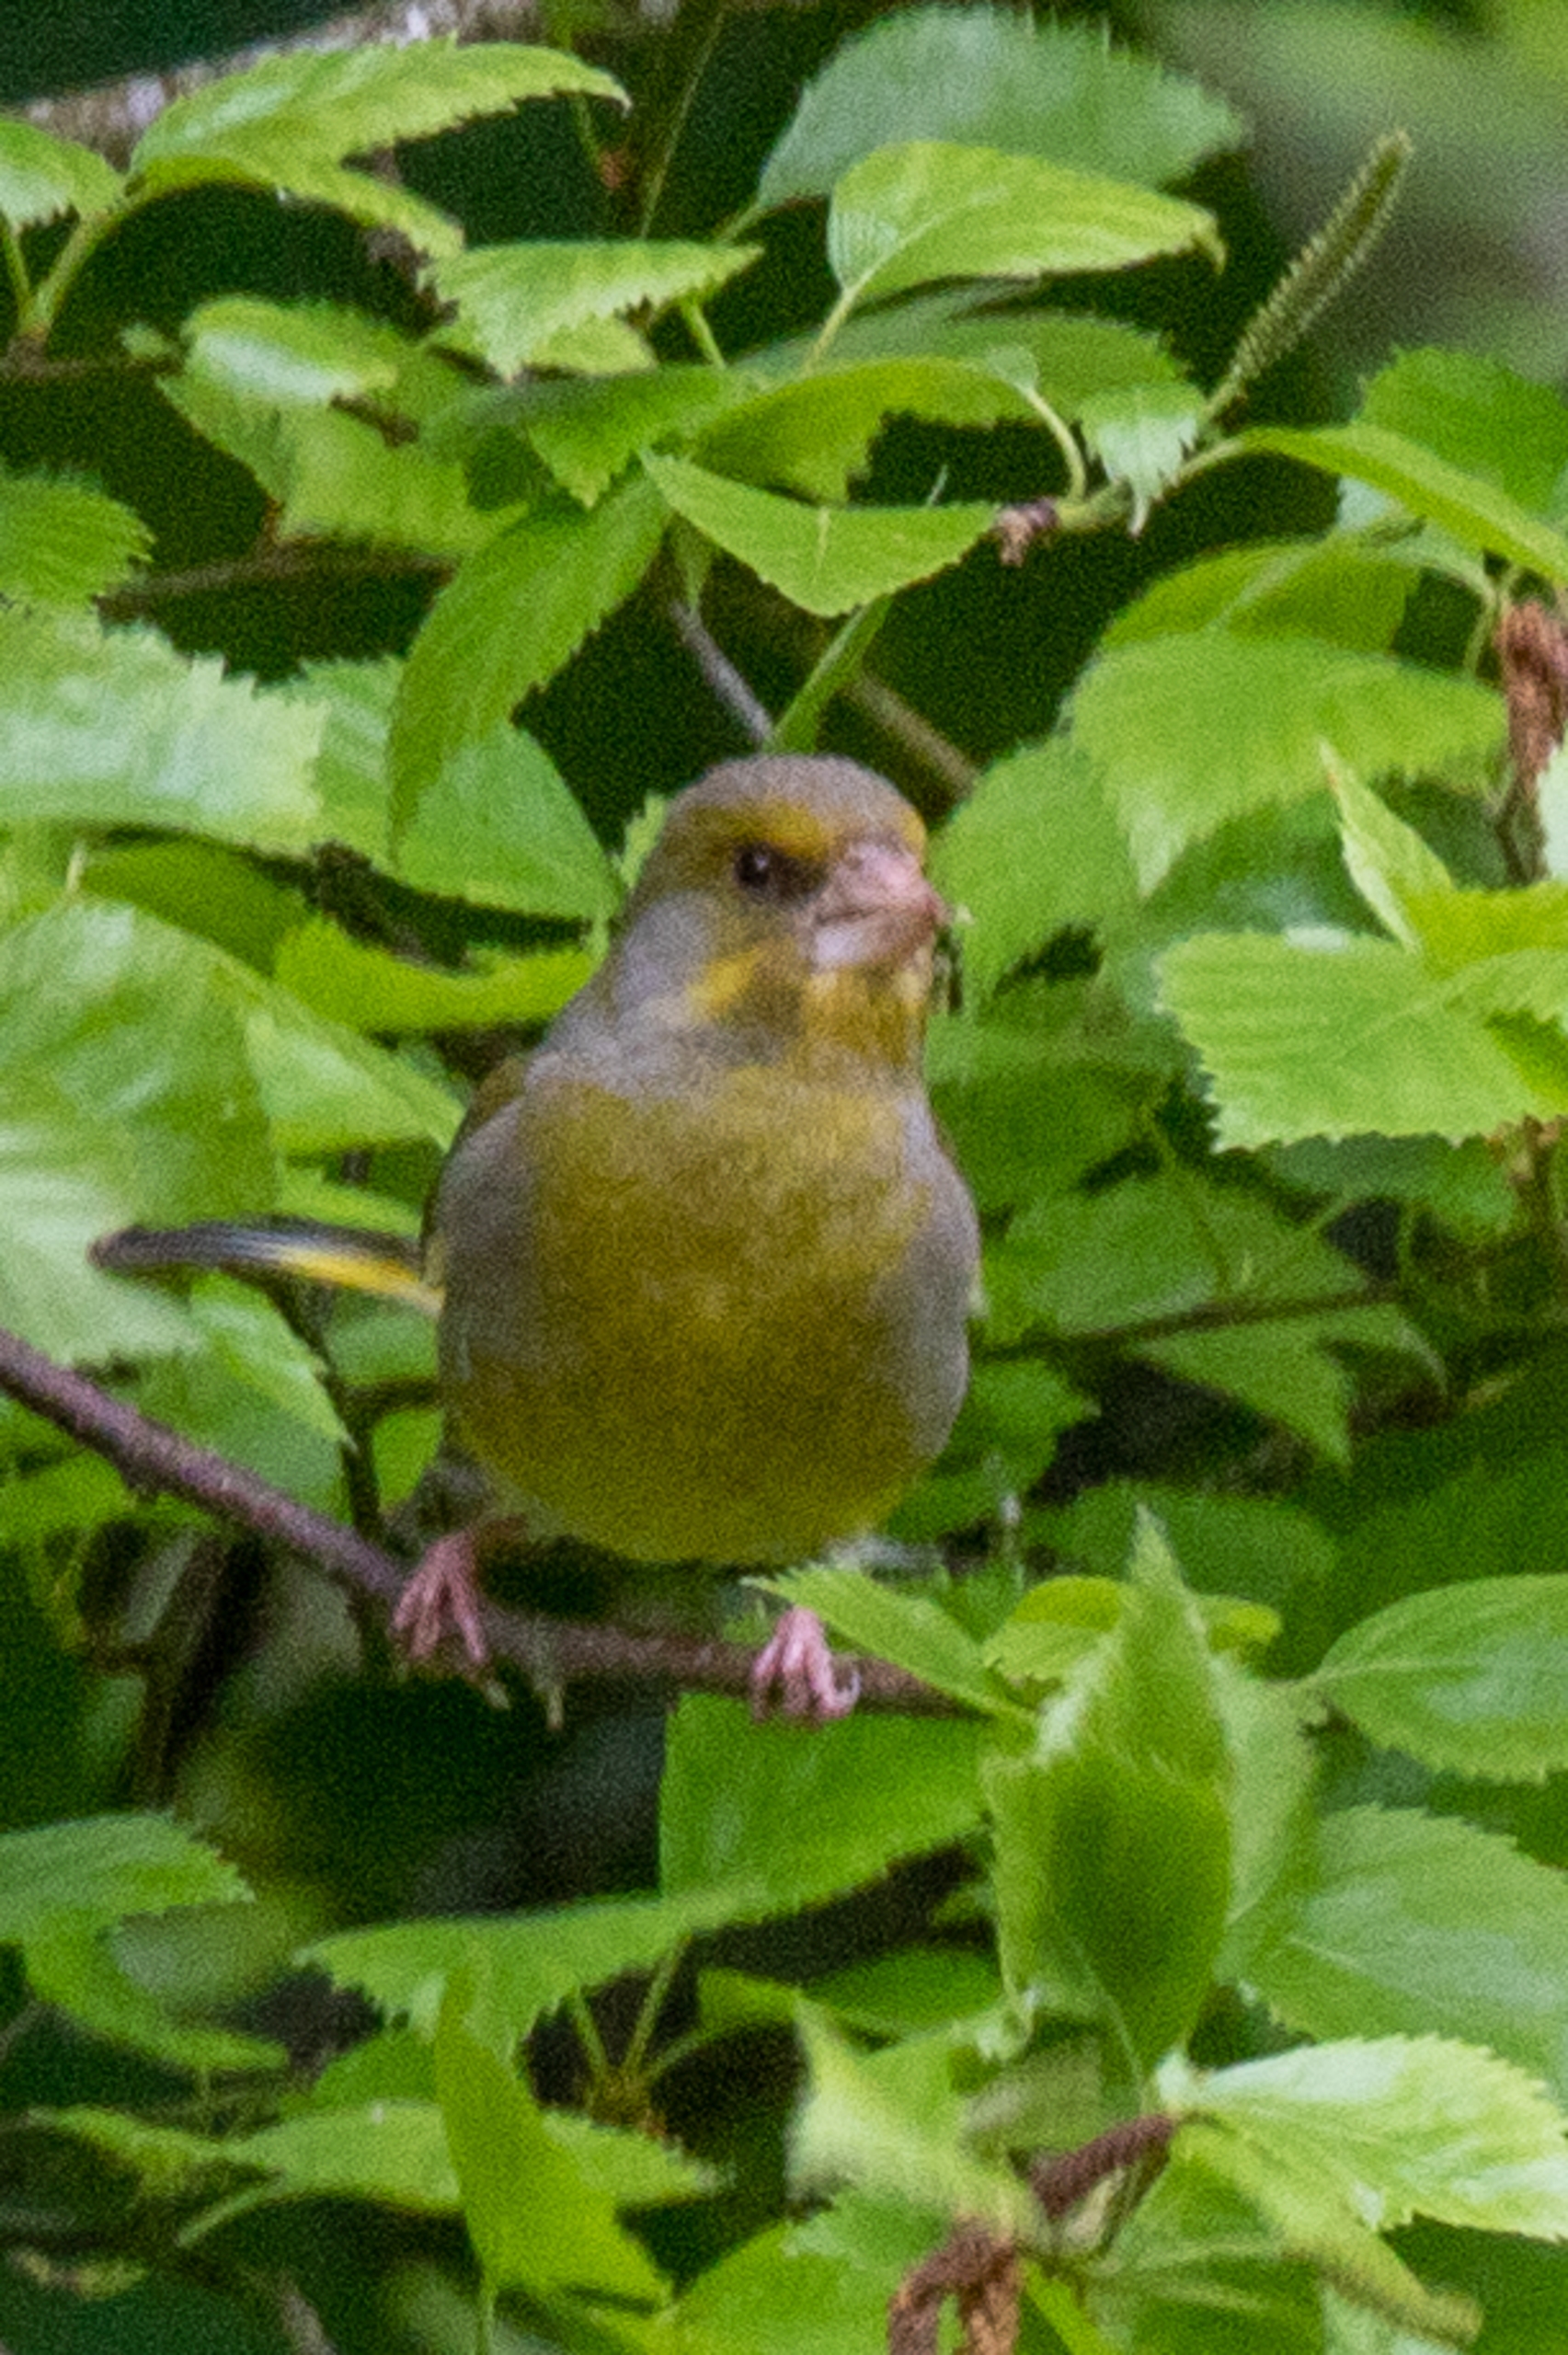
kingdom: Plantae
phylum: Tracheophyta
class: Liliopsida
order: Poales
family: Poaceae
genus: Chloris
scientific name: Chloris chloris
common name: Grønirisk
